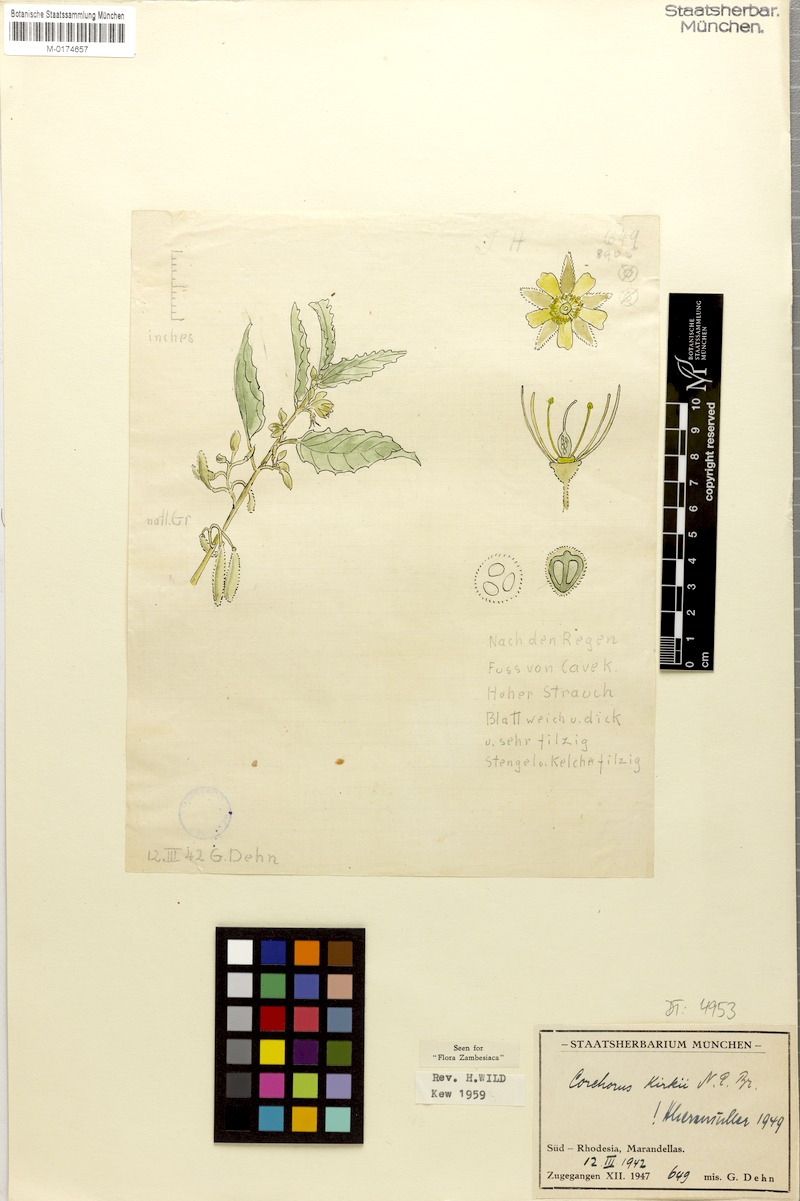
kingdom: Plantae
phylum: Tracheophyta
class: Magnoliopsida
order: Malvales
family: Malvaceae
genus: Corchorus
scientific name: Corchorus kirkii
